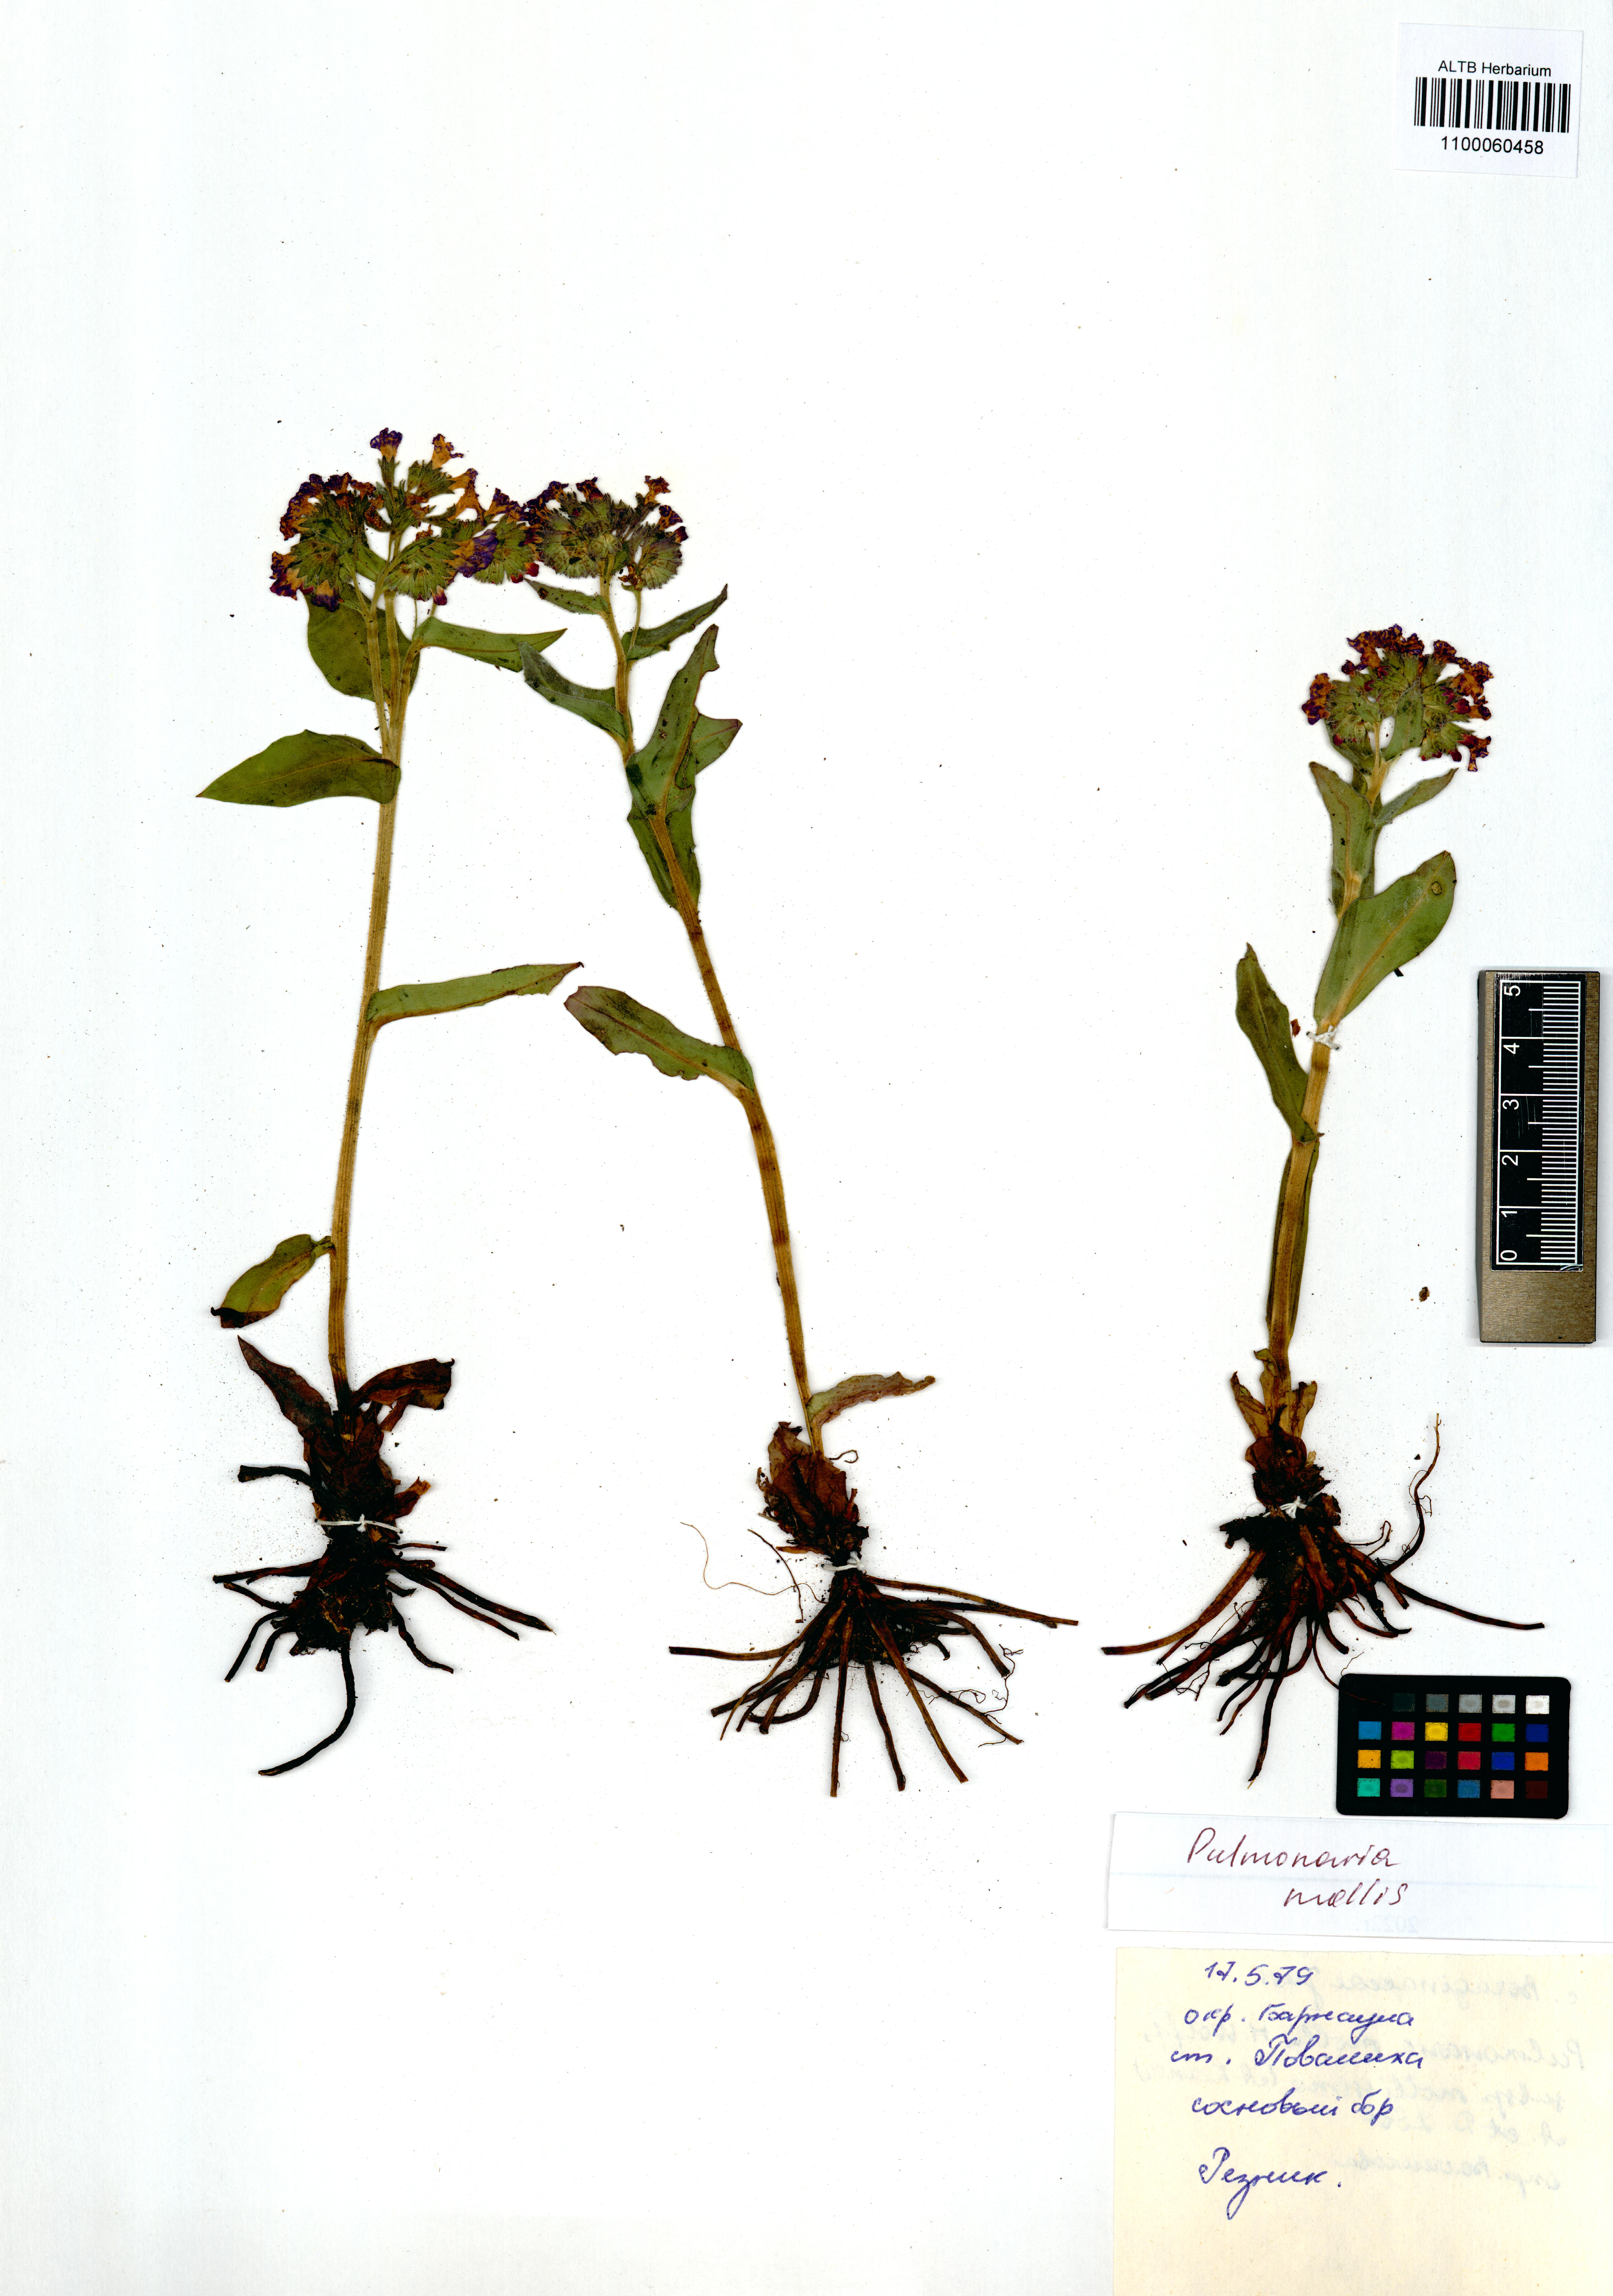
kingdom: Plantae
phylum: Tracheophyta
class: Magnoliopsida
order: Boraginales
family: Boraginaceae
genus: Pulmonaria
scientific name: Pulmonaria mollis
